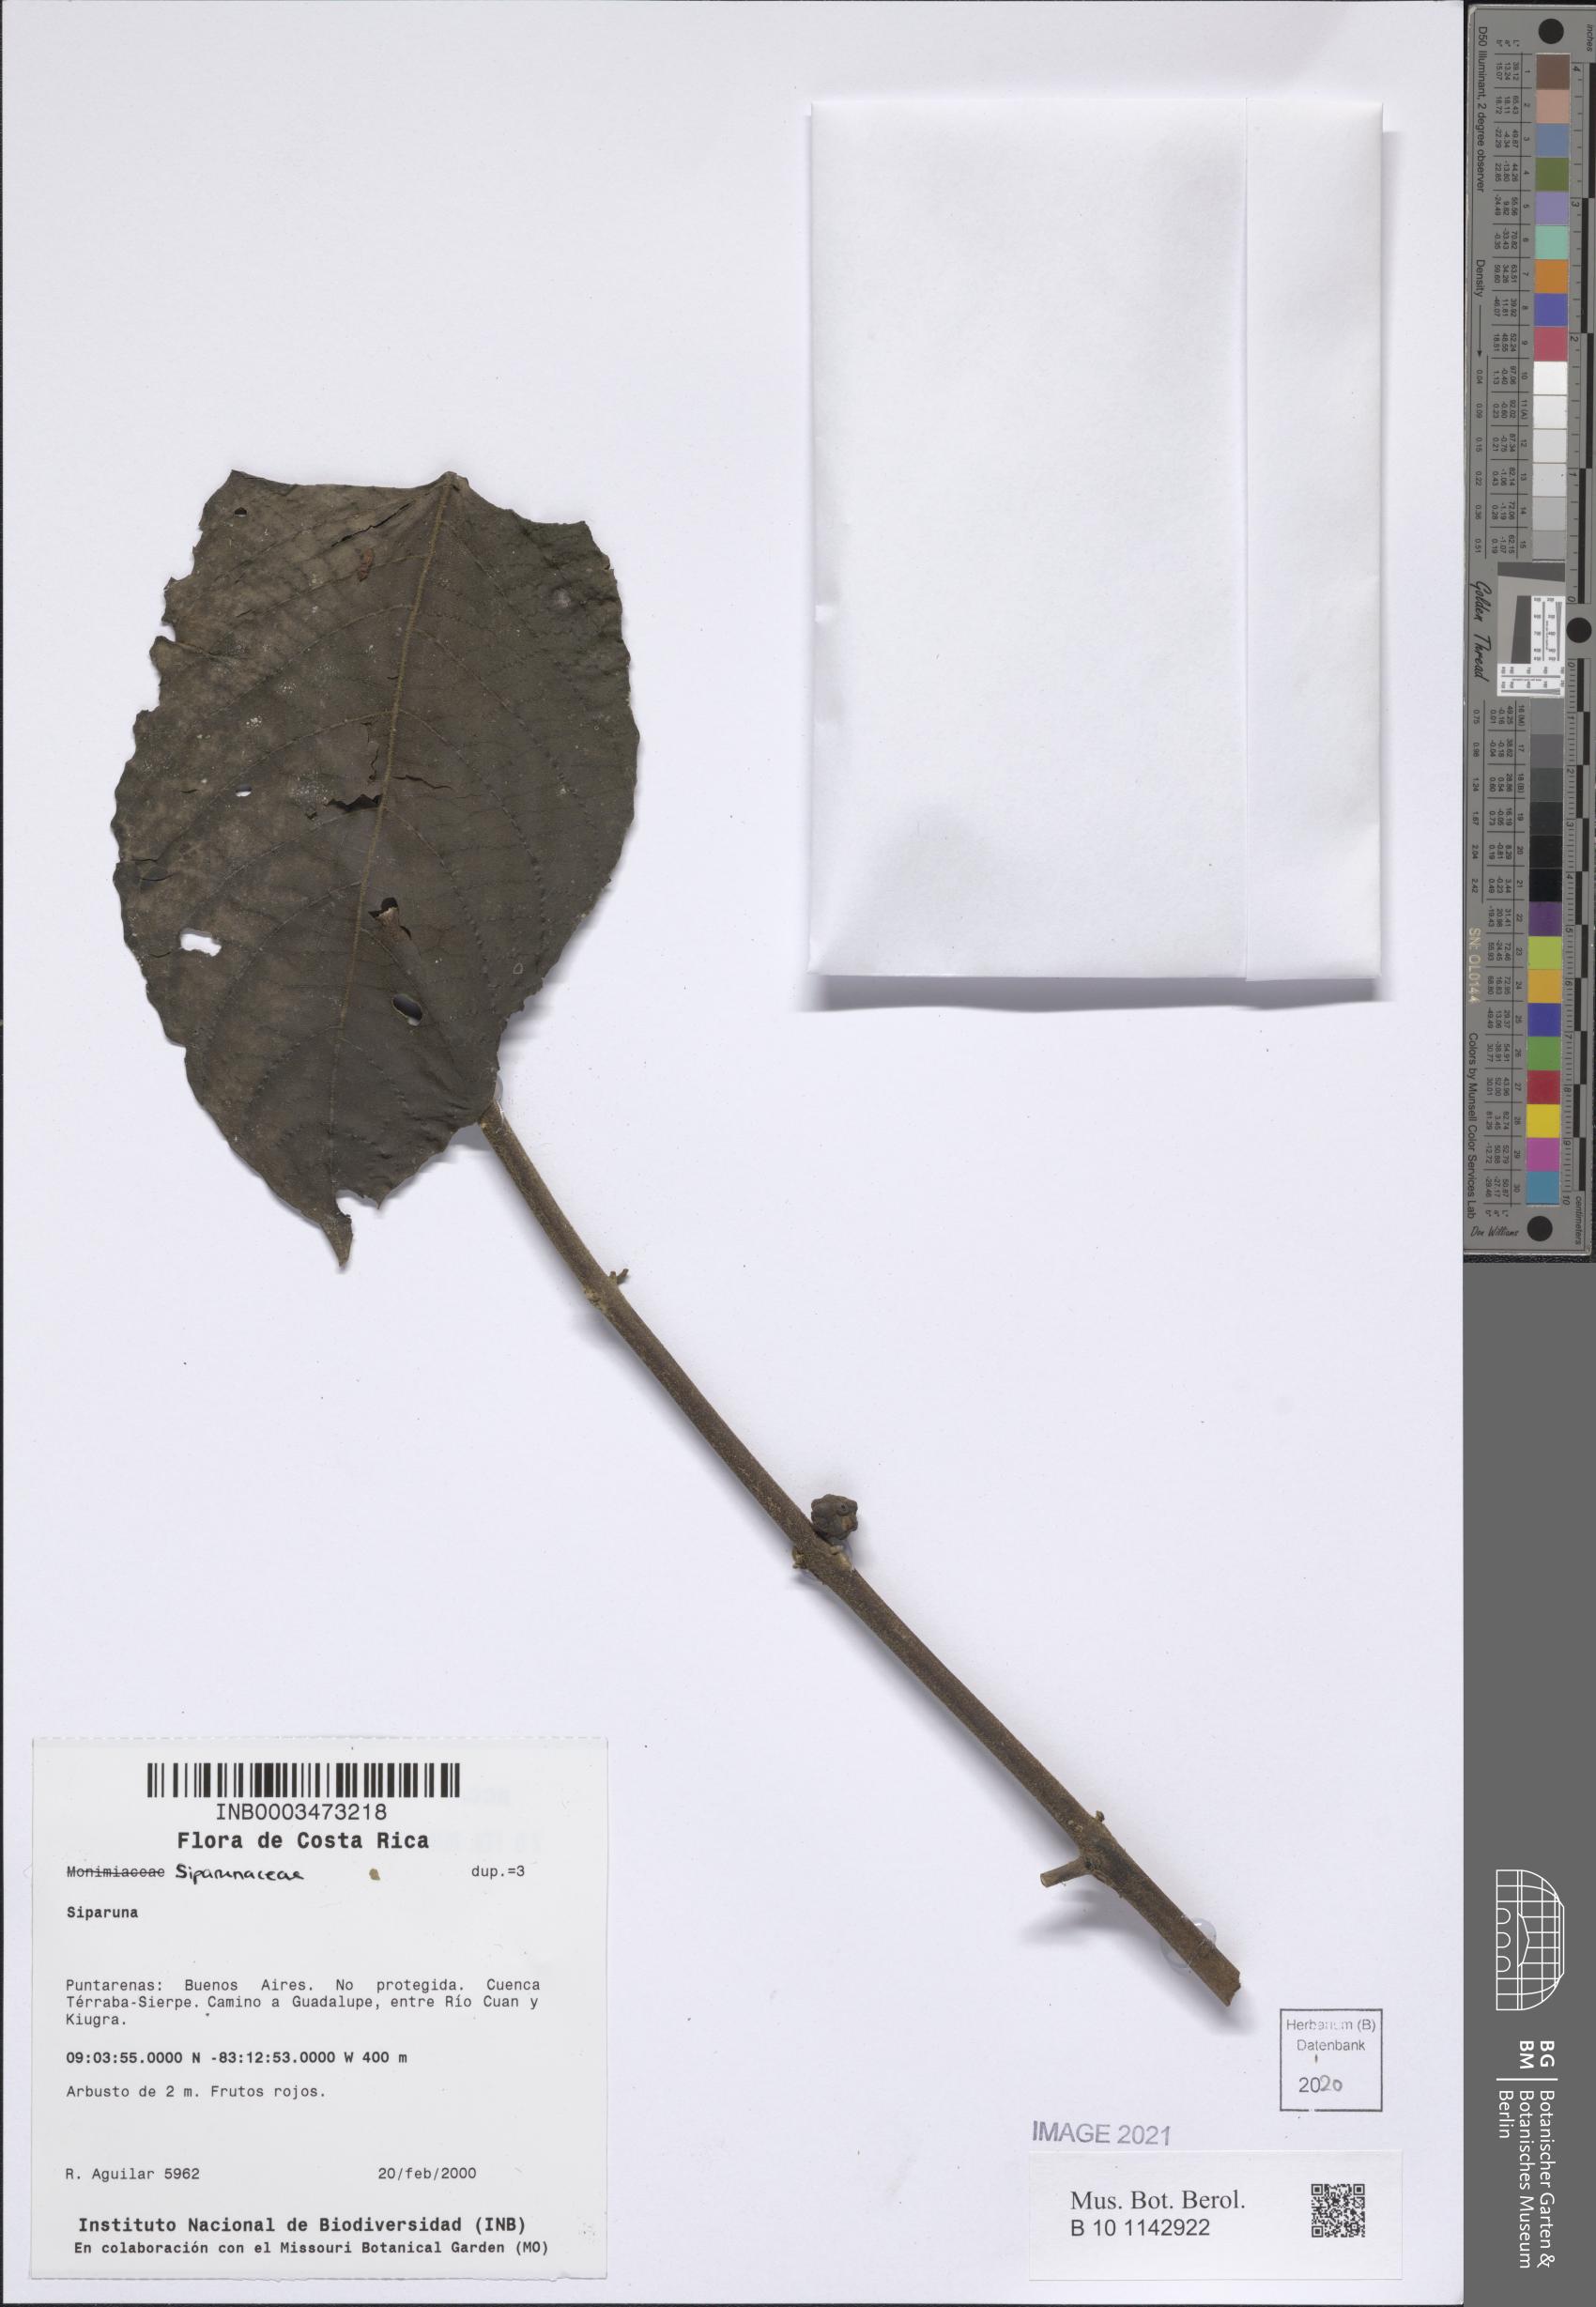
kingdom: Plantae
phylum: Tracheophyta
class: Magnoliopsida
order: Laurales
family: Siparunaceae
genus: Siparuna
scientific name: Siparuna
